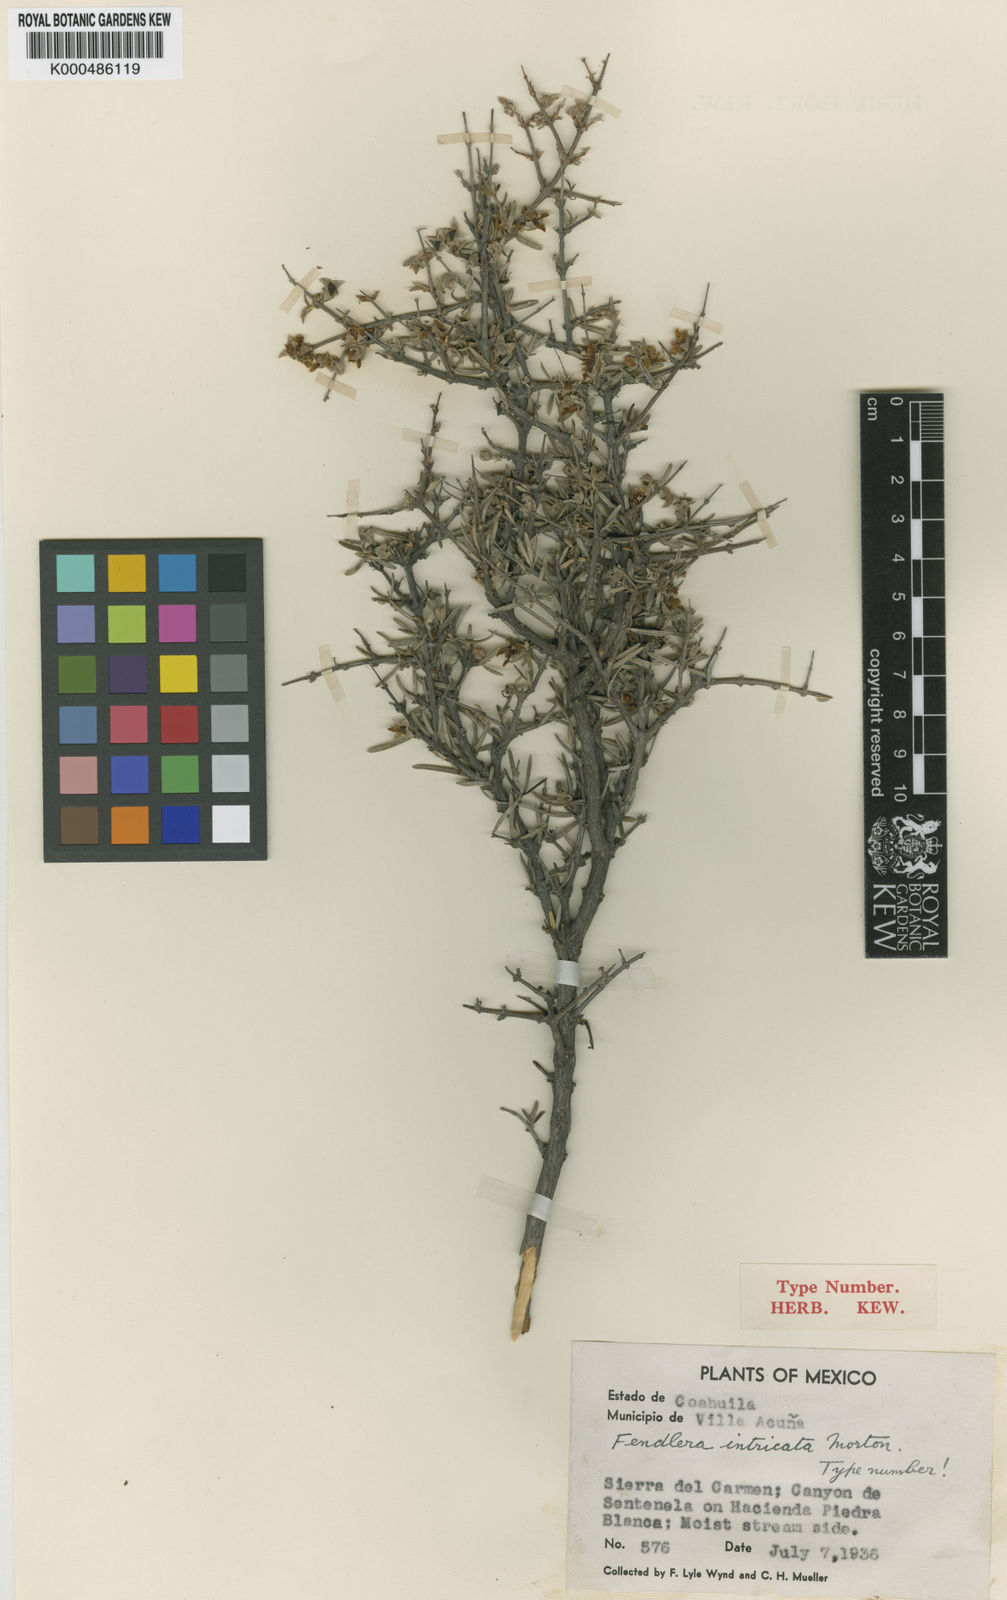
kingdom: Plantae
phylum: Tracheophyta
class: Magnoliopsida
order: Cornales
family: Hydrangeaceae
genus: Fendlera
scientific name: Fendlera
